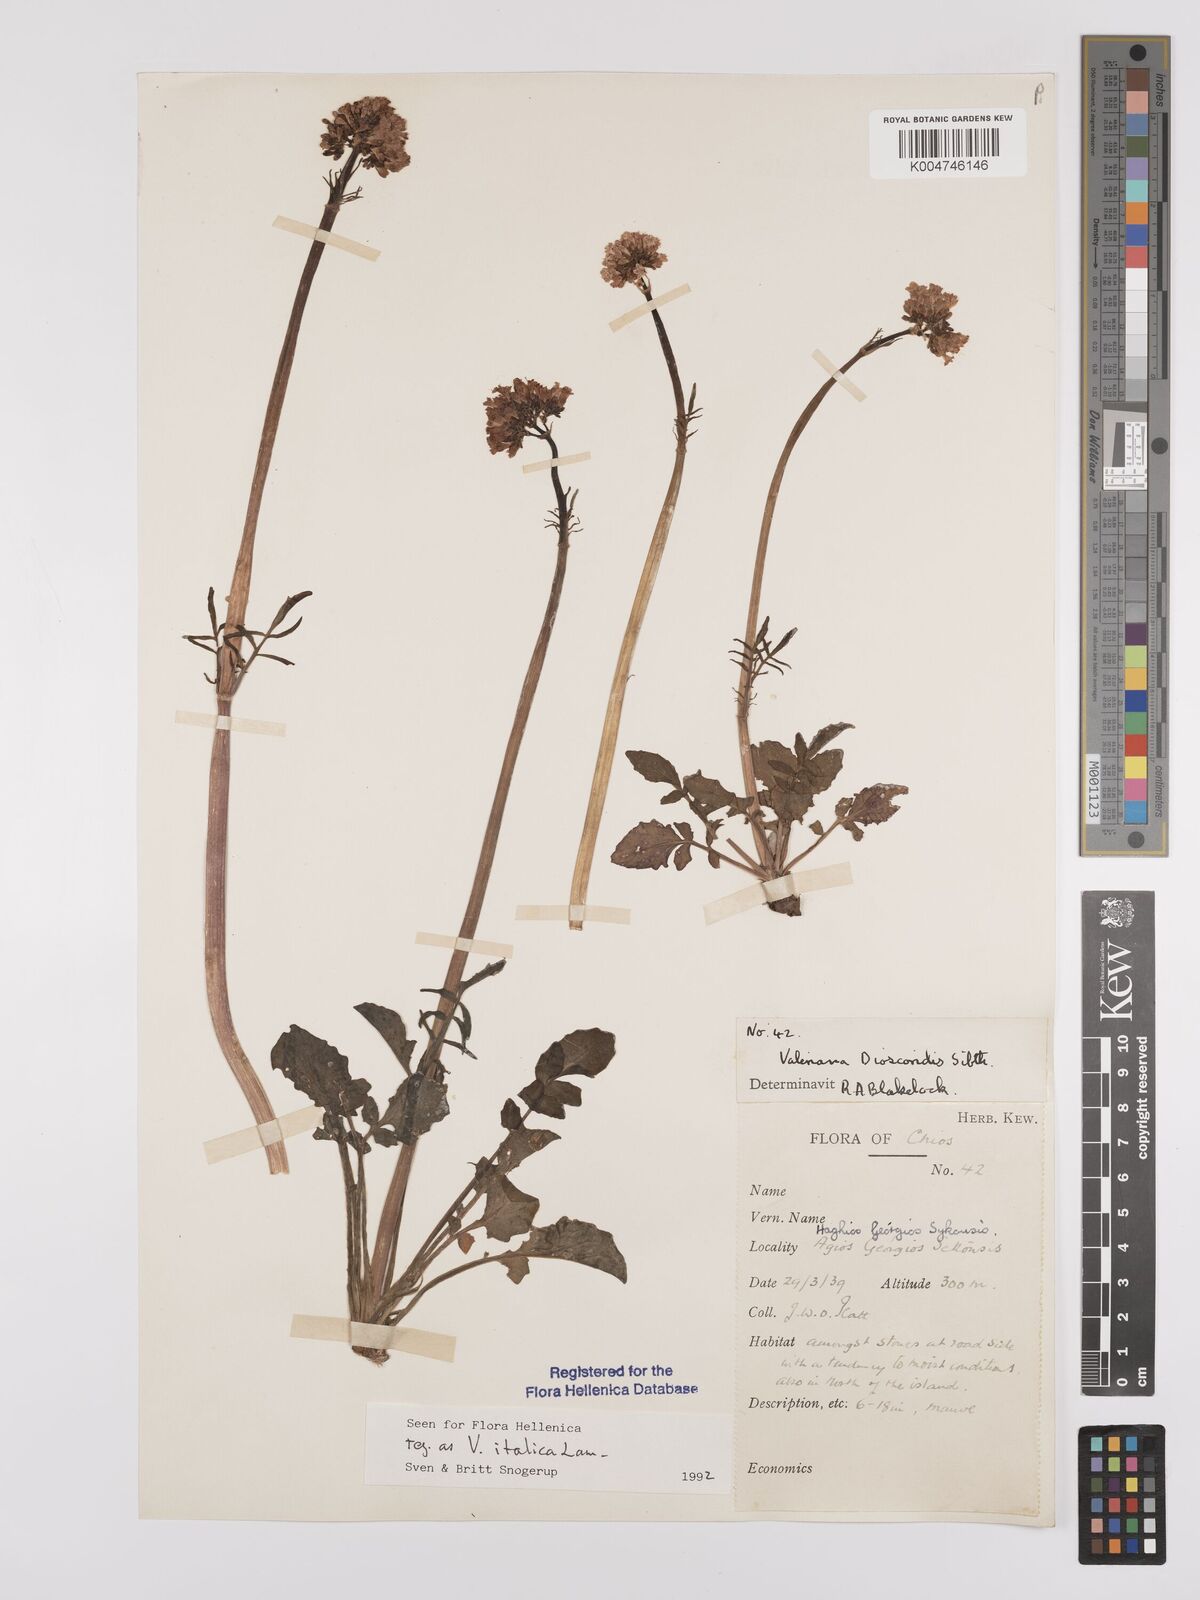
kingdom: Plantae
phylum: Tracheophyta
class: Magnoliopsida
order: Dipsacales
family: Caprifoliaceae
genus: Valeriana
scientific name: Valeriana dioscoridis
